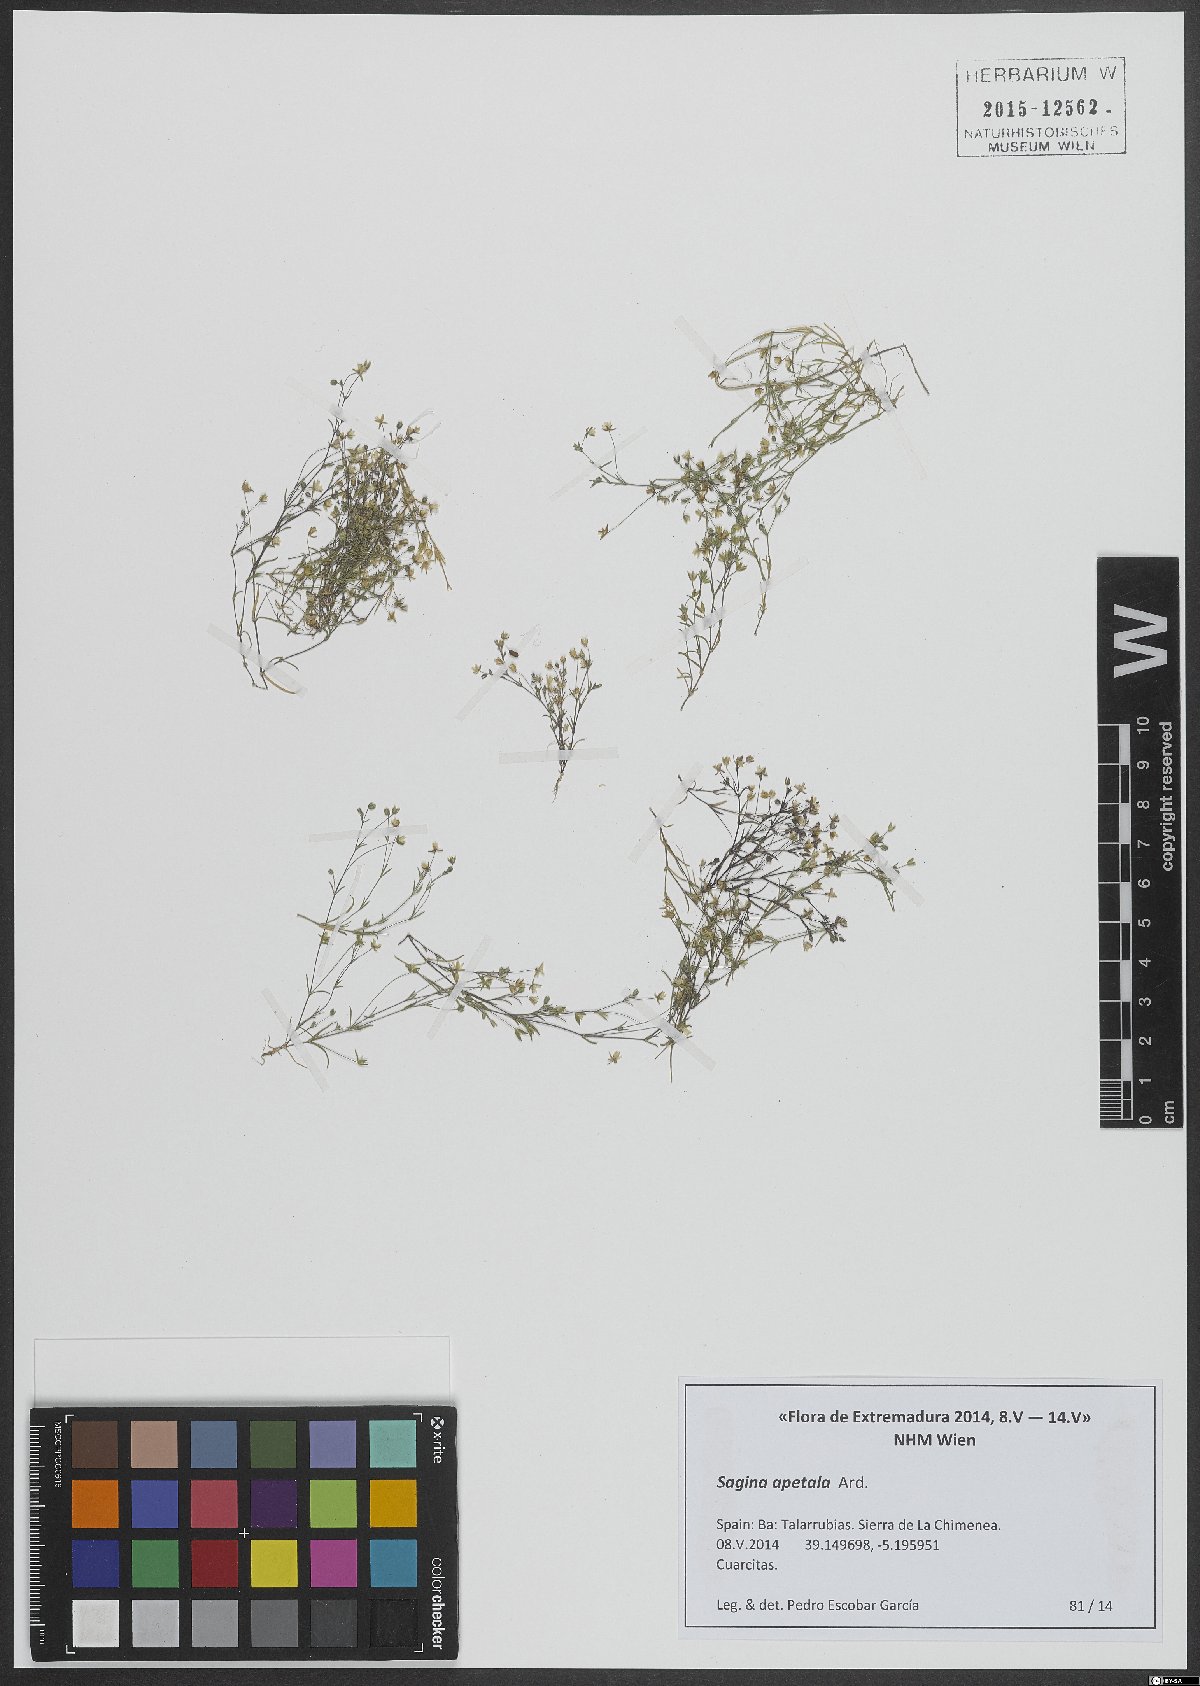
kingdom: Plantae
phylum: Tracheophyta
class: Magnoliopsida
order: Caryophyllales
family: Caryophyllaceae
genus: Sagina
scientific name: Sagina apetala
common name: Annual pearlwort
